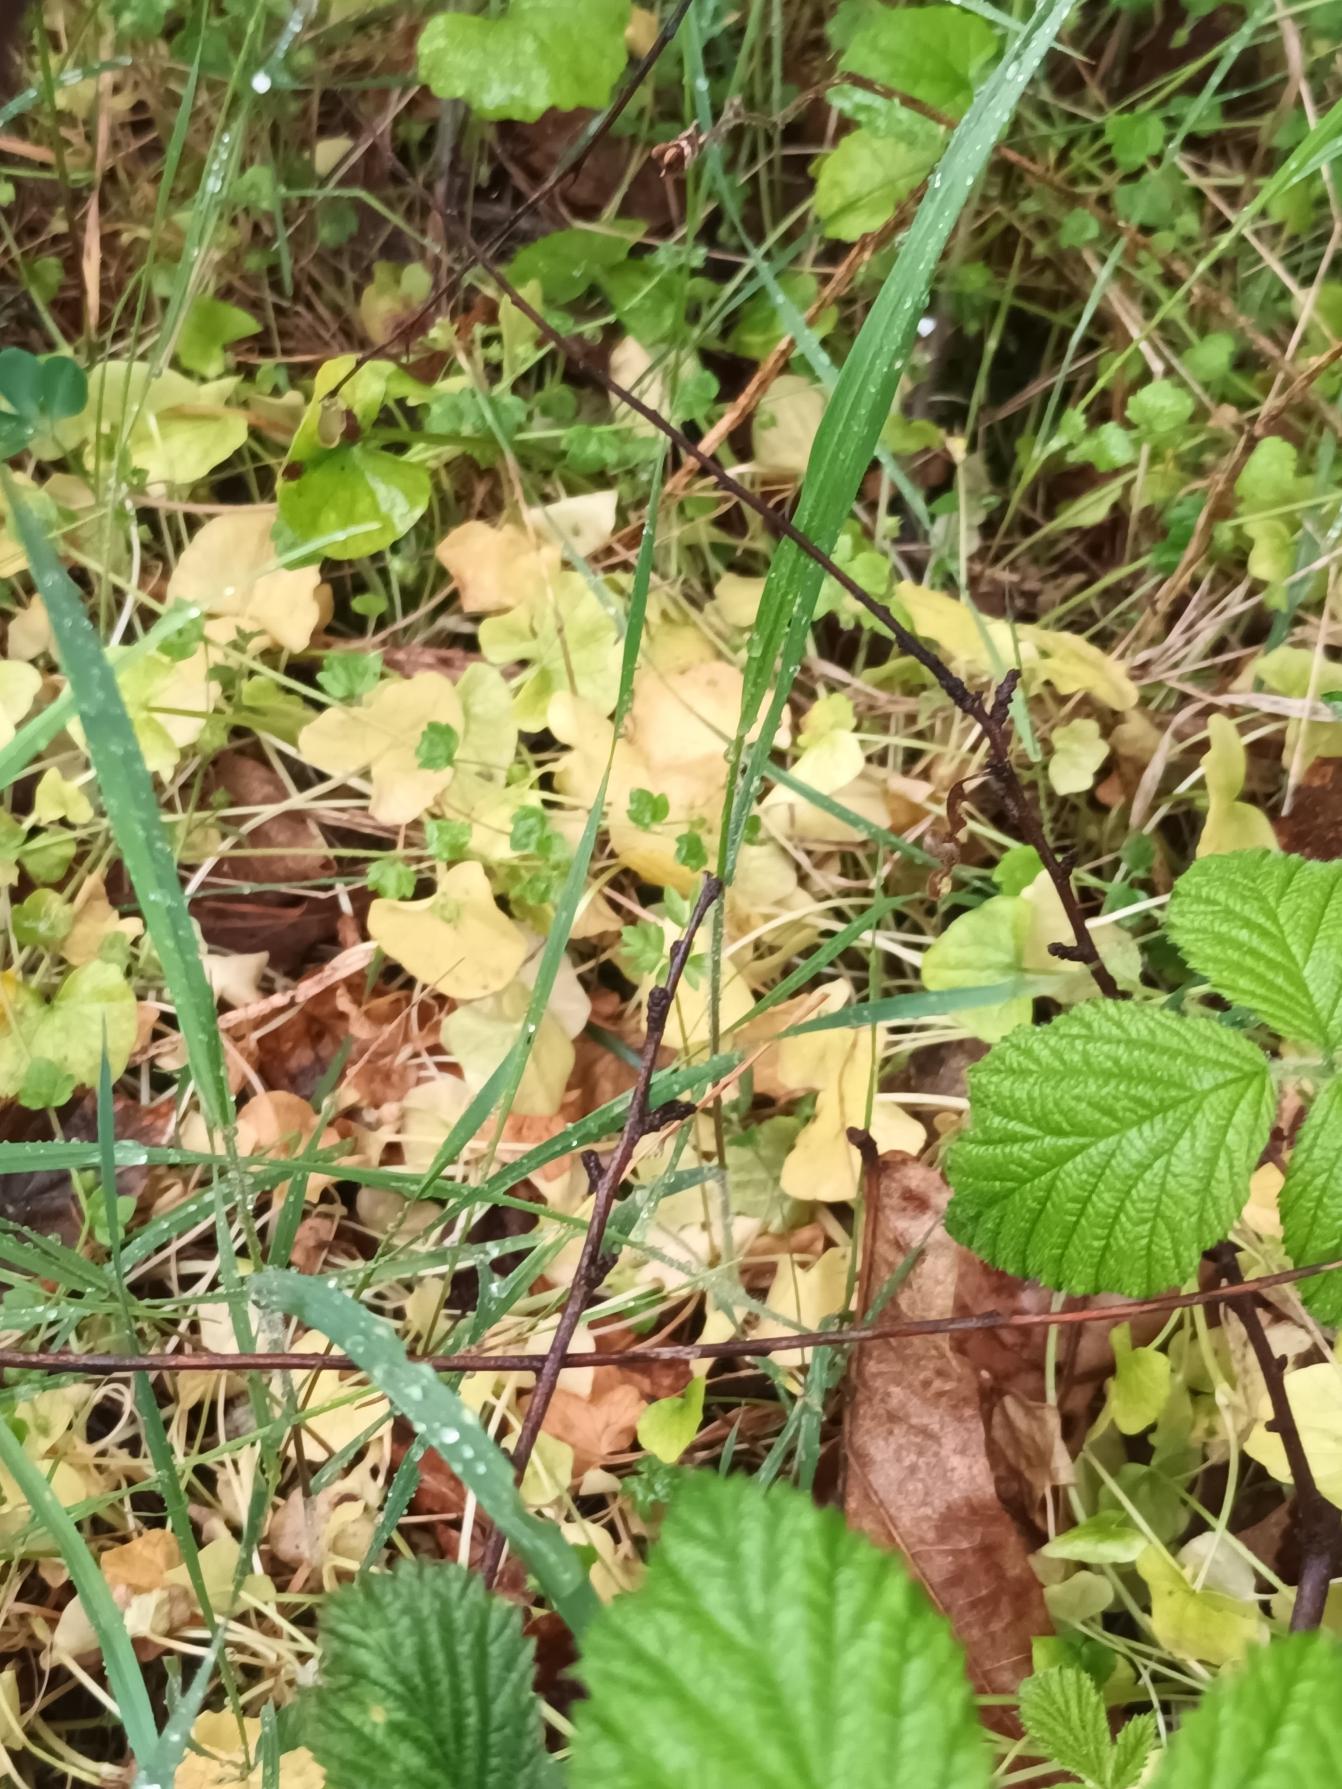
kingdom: Plantae
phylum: Tracheophyta
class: Magnoliopsida
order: Ranunculales
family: Ranunculaceae
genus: Ficaria
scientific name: Ficaria verna
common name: Vorterod
